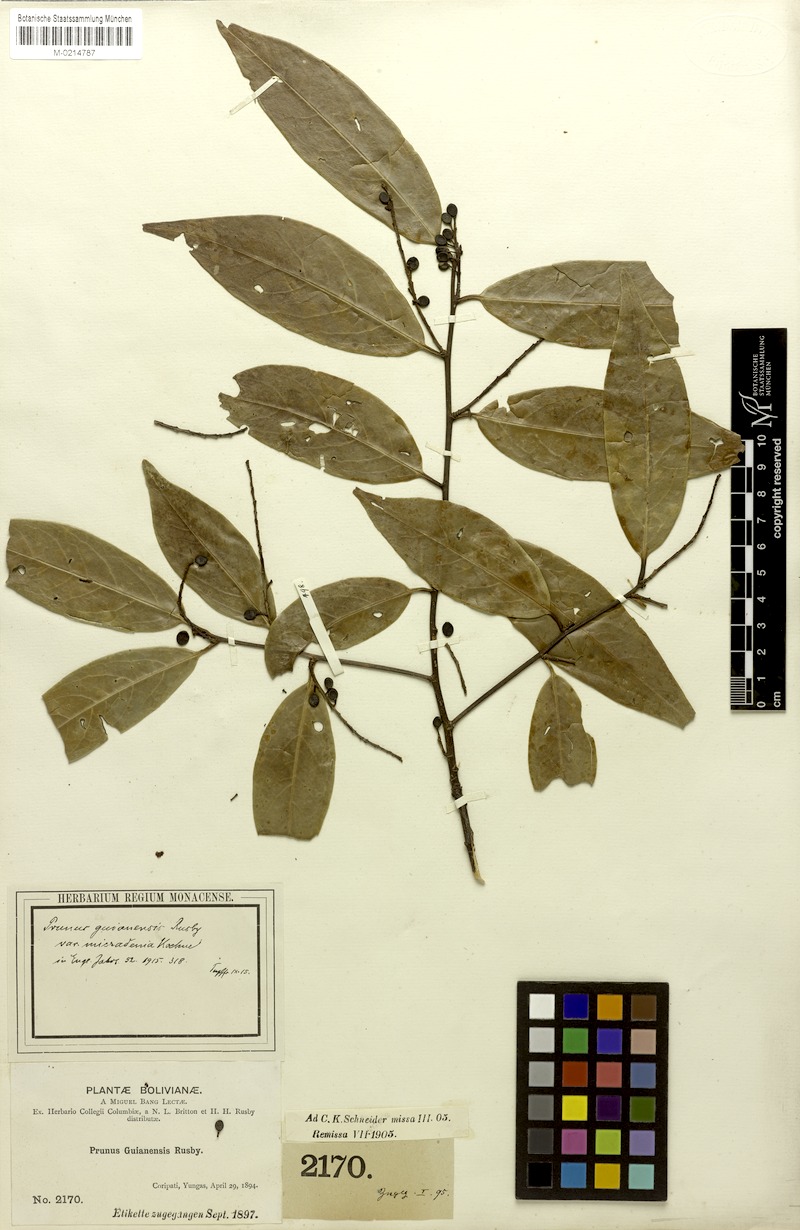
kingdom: Plantae
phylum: Tracheophyta
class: Magnoliopsida
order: Rosales
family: Rosaceae
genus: Prunus
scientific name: Prunus guanaiensis
